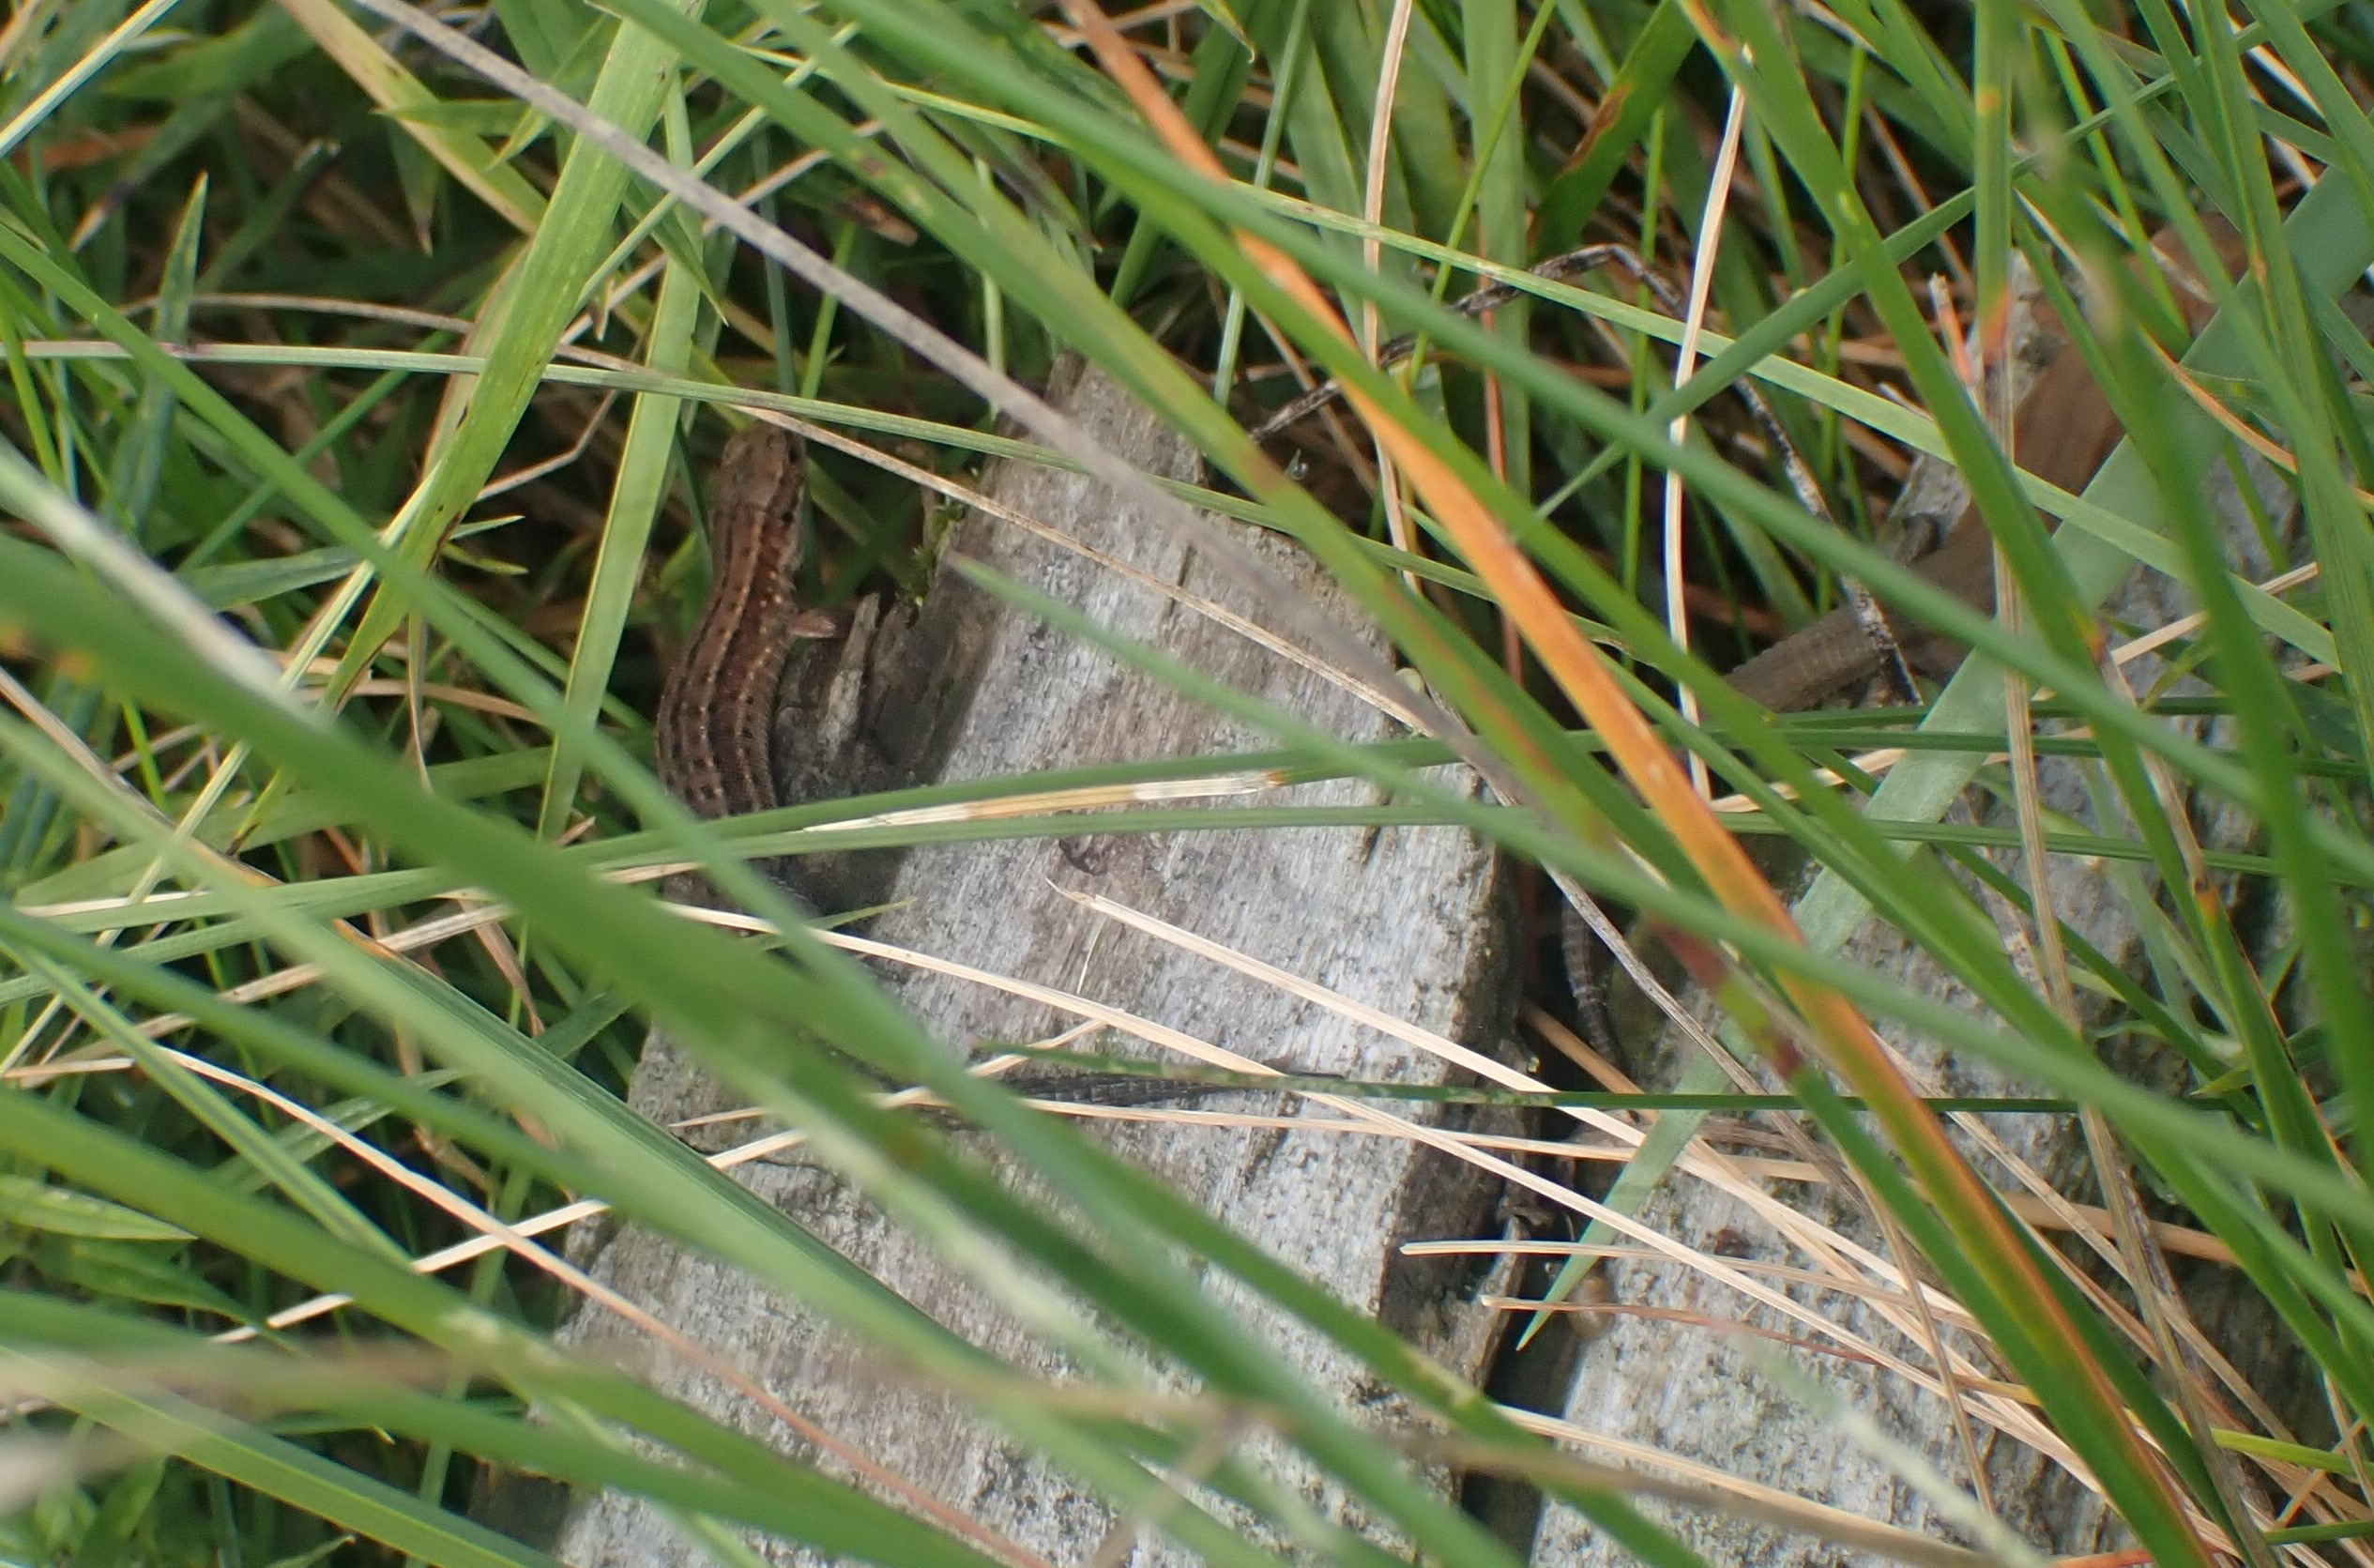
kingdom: Animalia
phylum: Chordata
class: Squamata
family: Lacertidae
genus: Zootoca
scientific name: Zootoca vivipara
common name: Skovfirben
